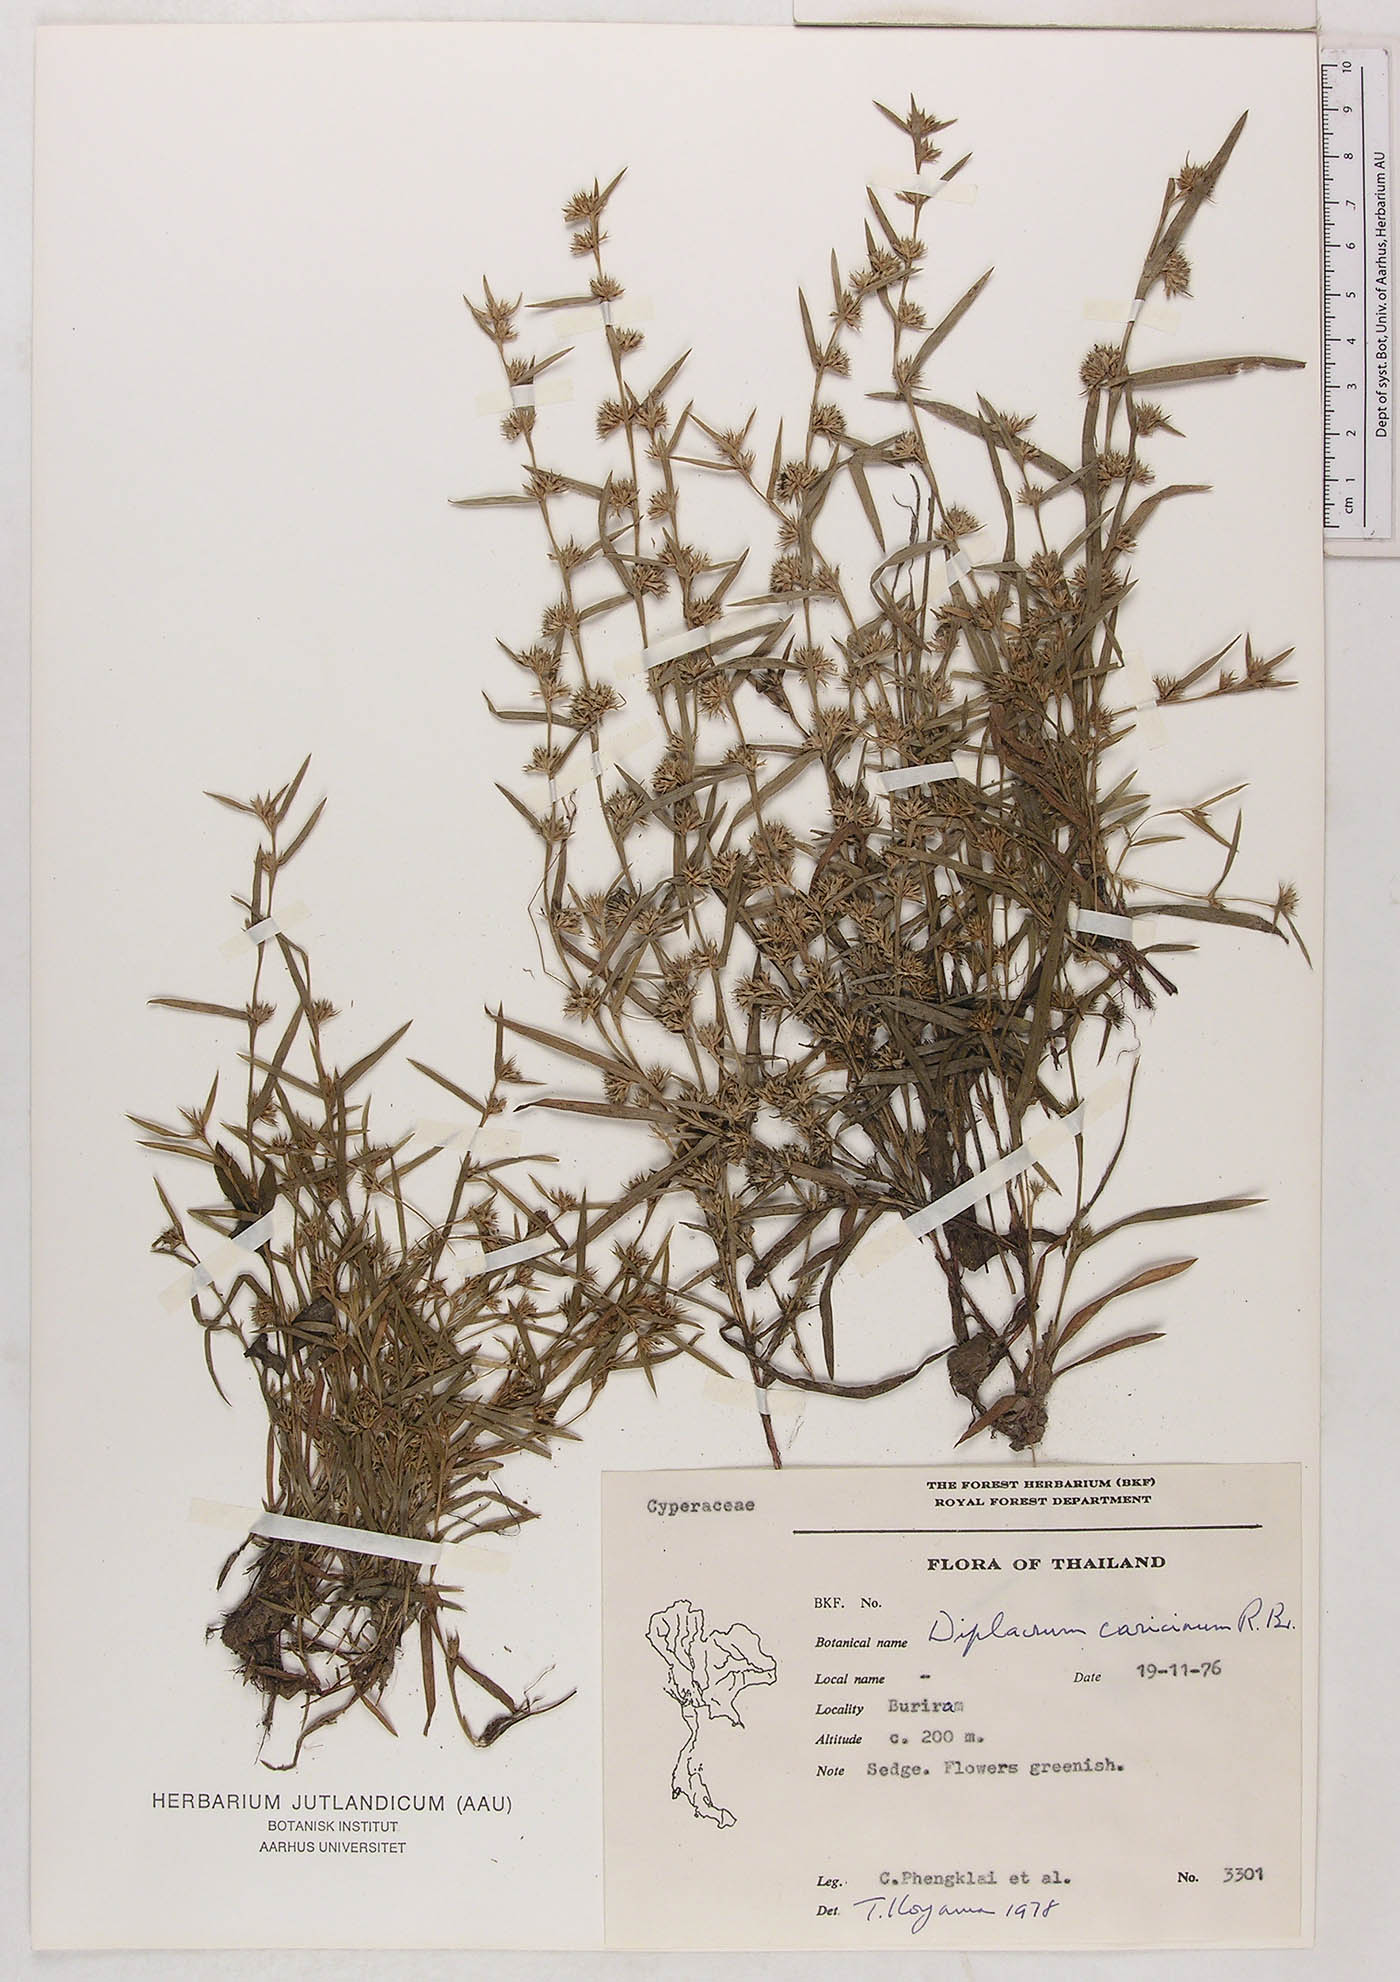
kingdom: Plantae
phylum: Tracheophyta
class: Liliopsida
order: Poales
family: Cyperaceae
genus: Diplacrum
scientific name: Diplacrum caricinum
